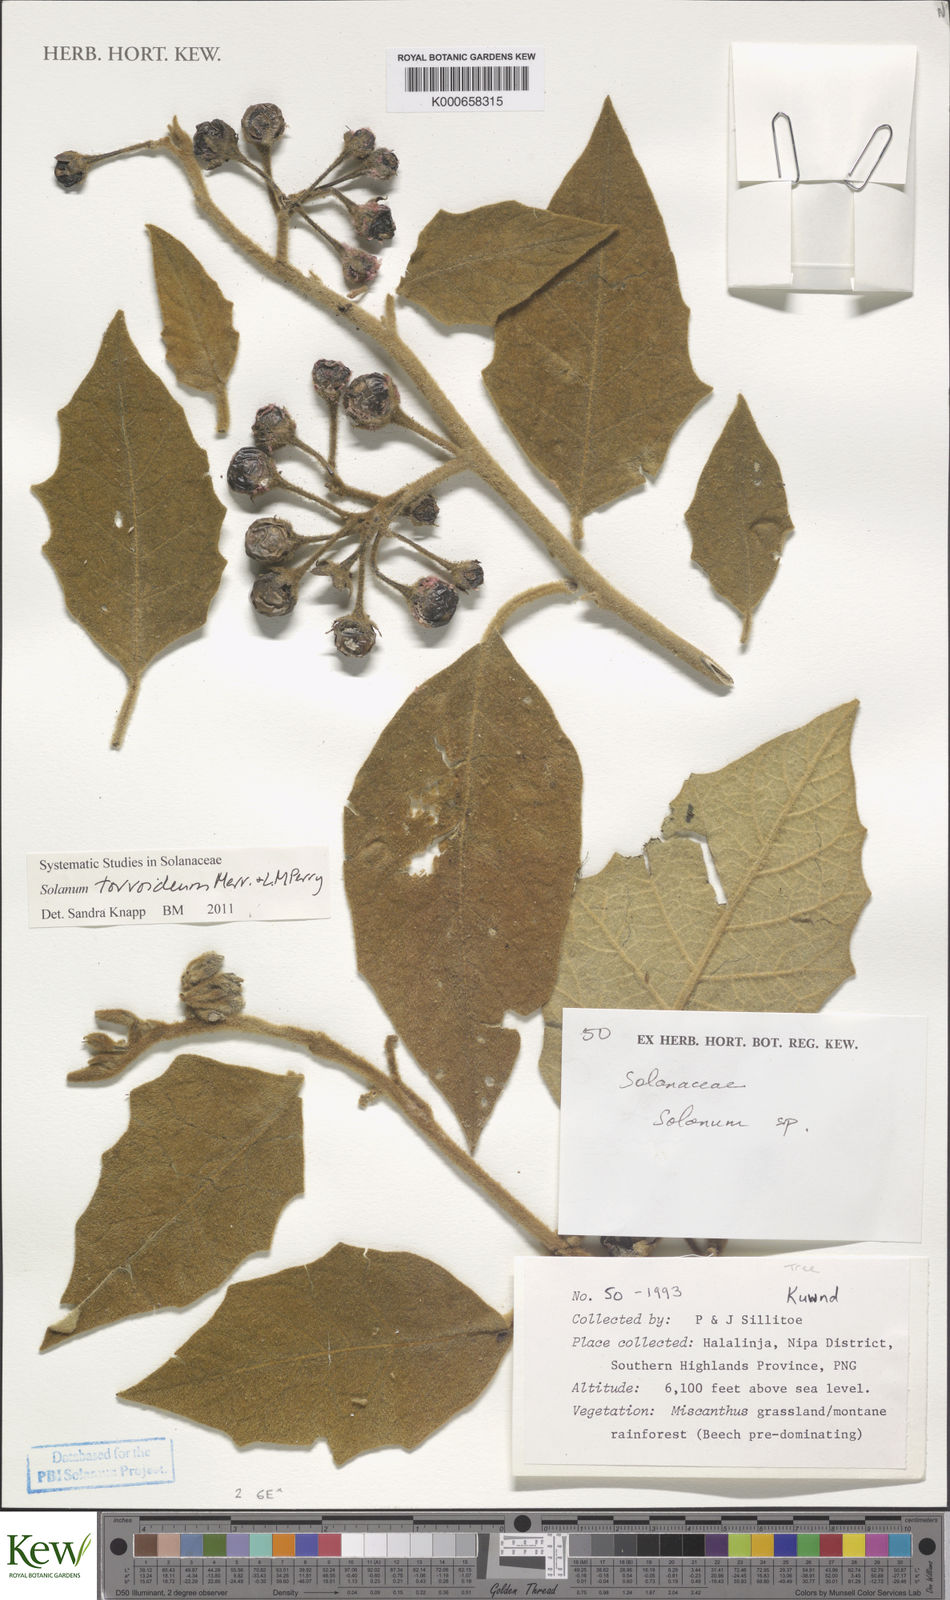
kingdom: Plantae
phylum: Tracheophyta
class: Magnoliopsida
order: Solanales
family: Solanaceae
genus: Solanum
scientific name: Solanum torvoideum
